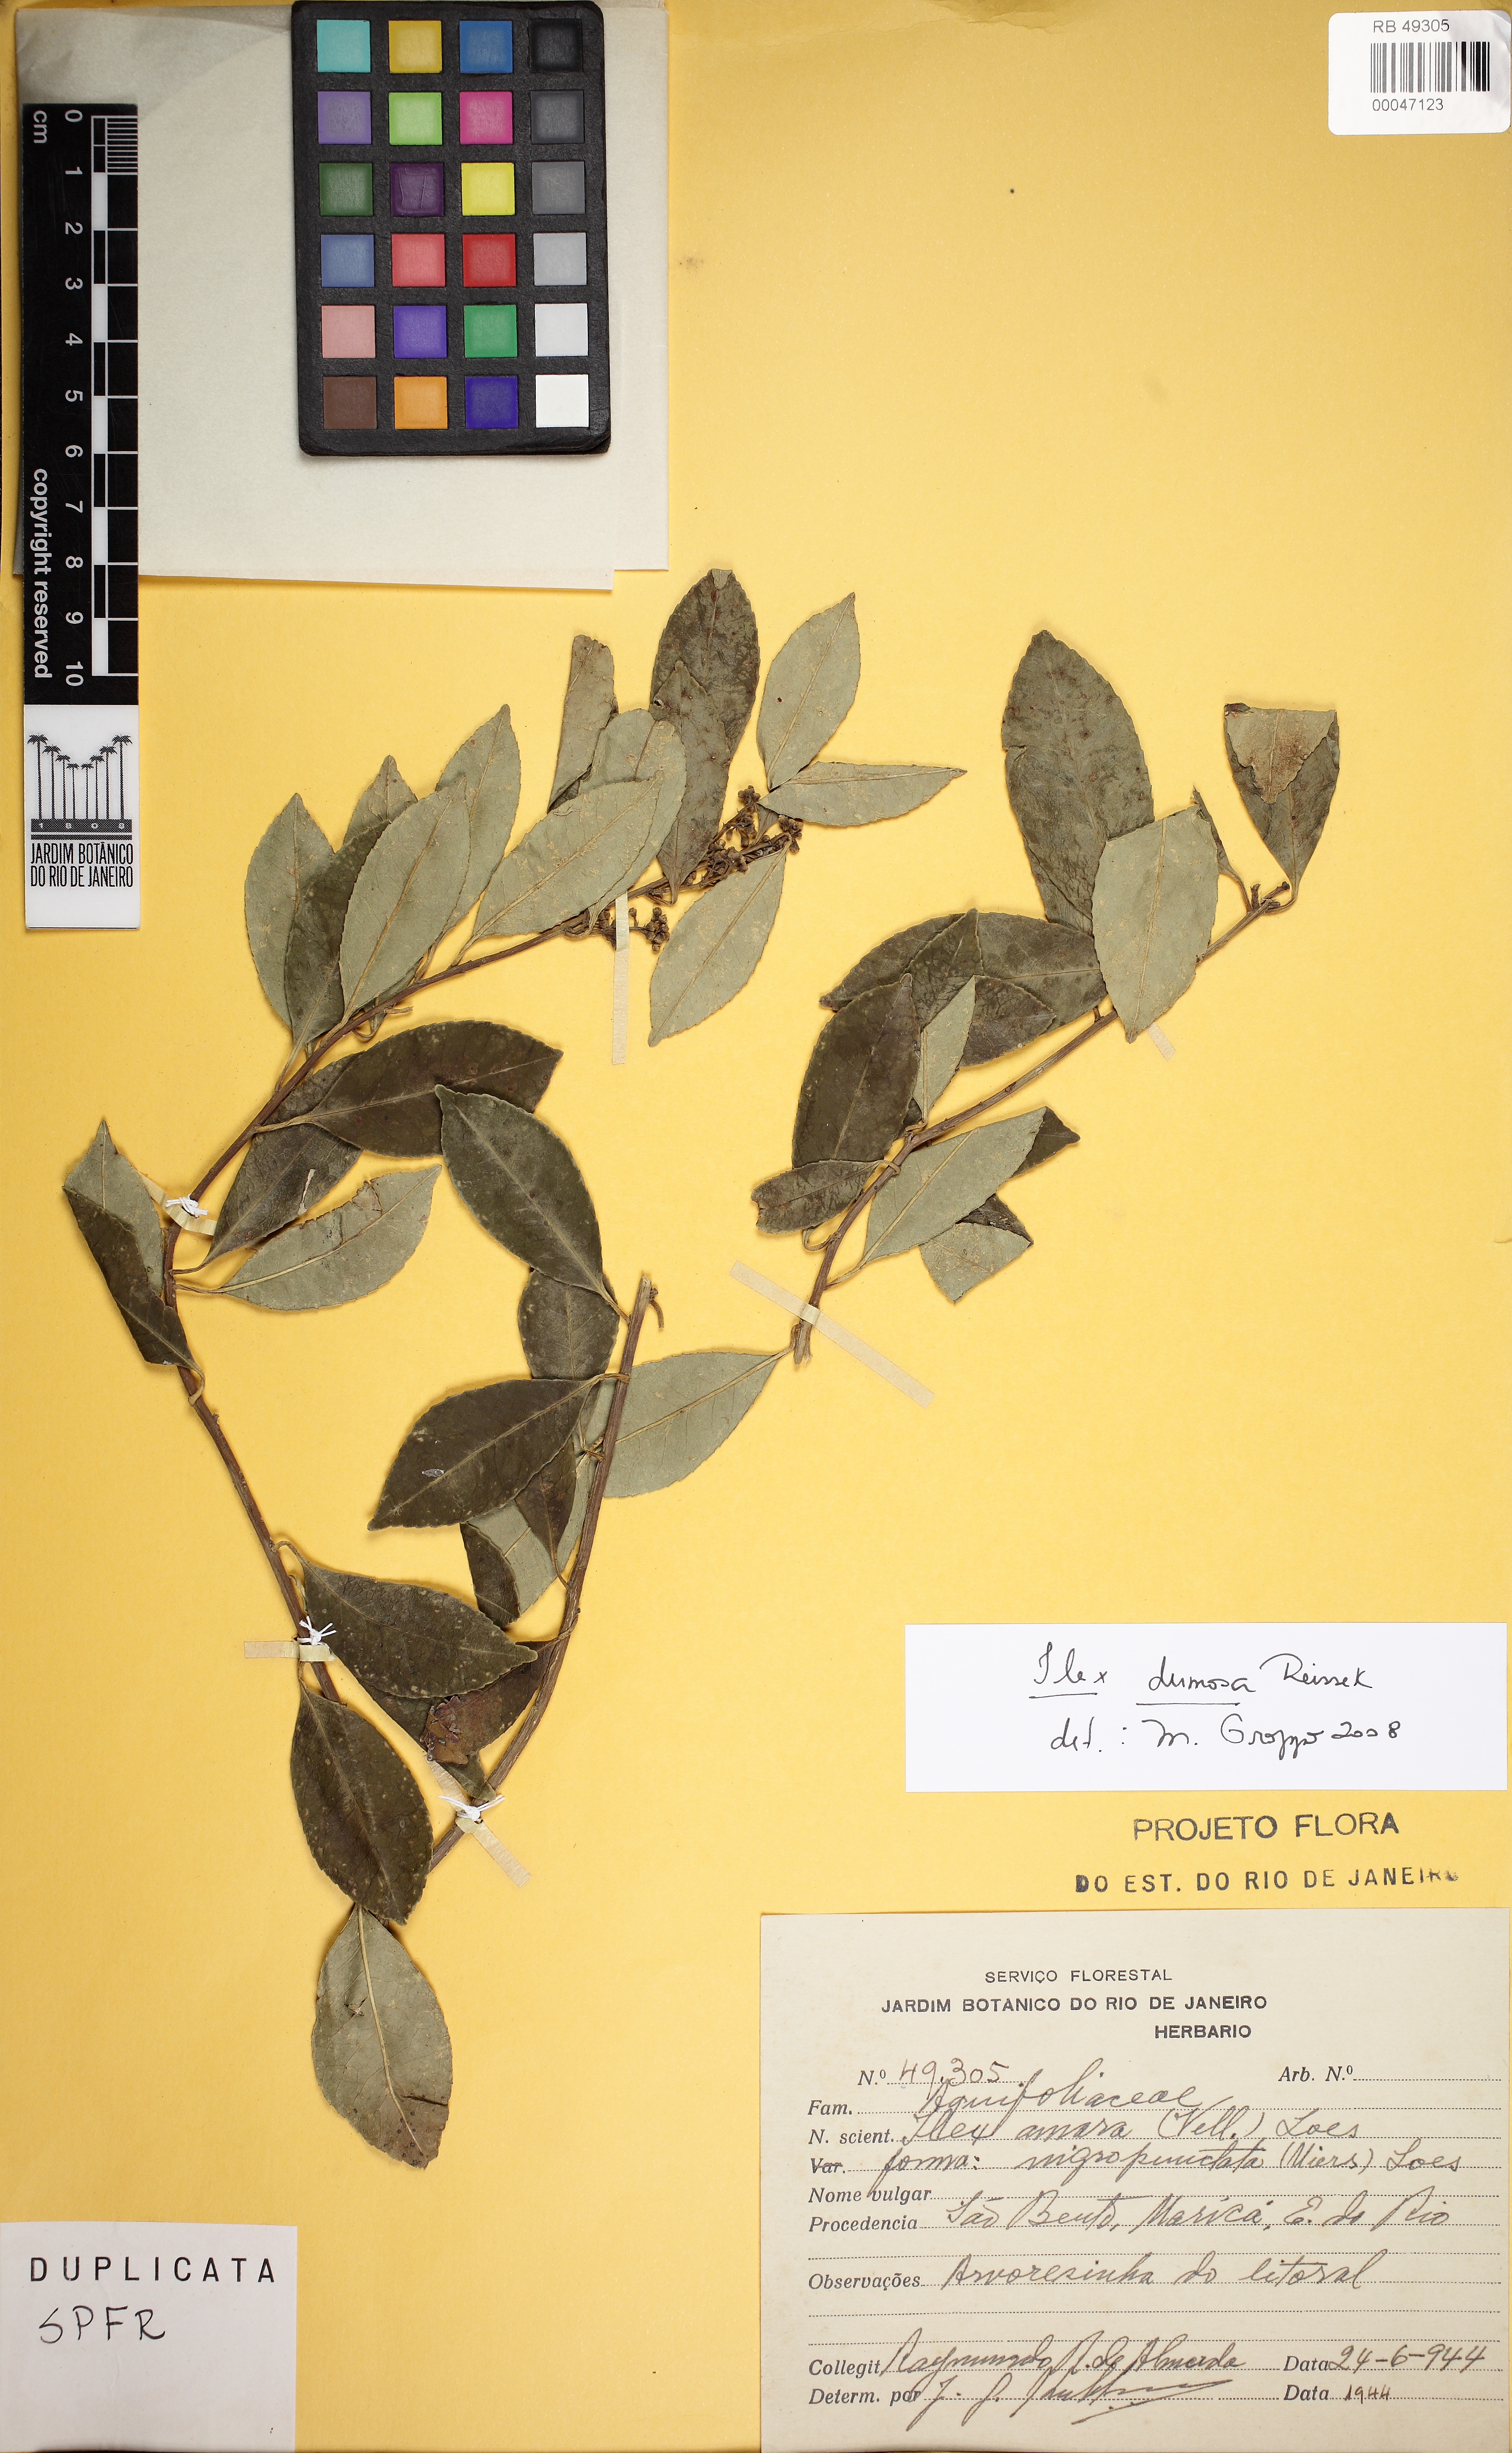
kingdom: Plantae
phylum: Tracheophyta
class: Magnoliopsida
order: Aquifoliales
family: Aquifoliaceae
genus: Ilex
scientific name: Ilex dumosa
